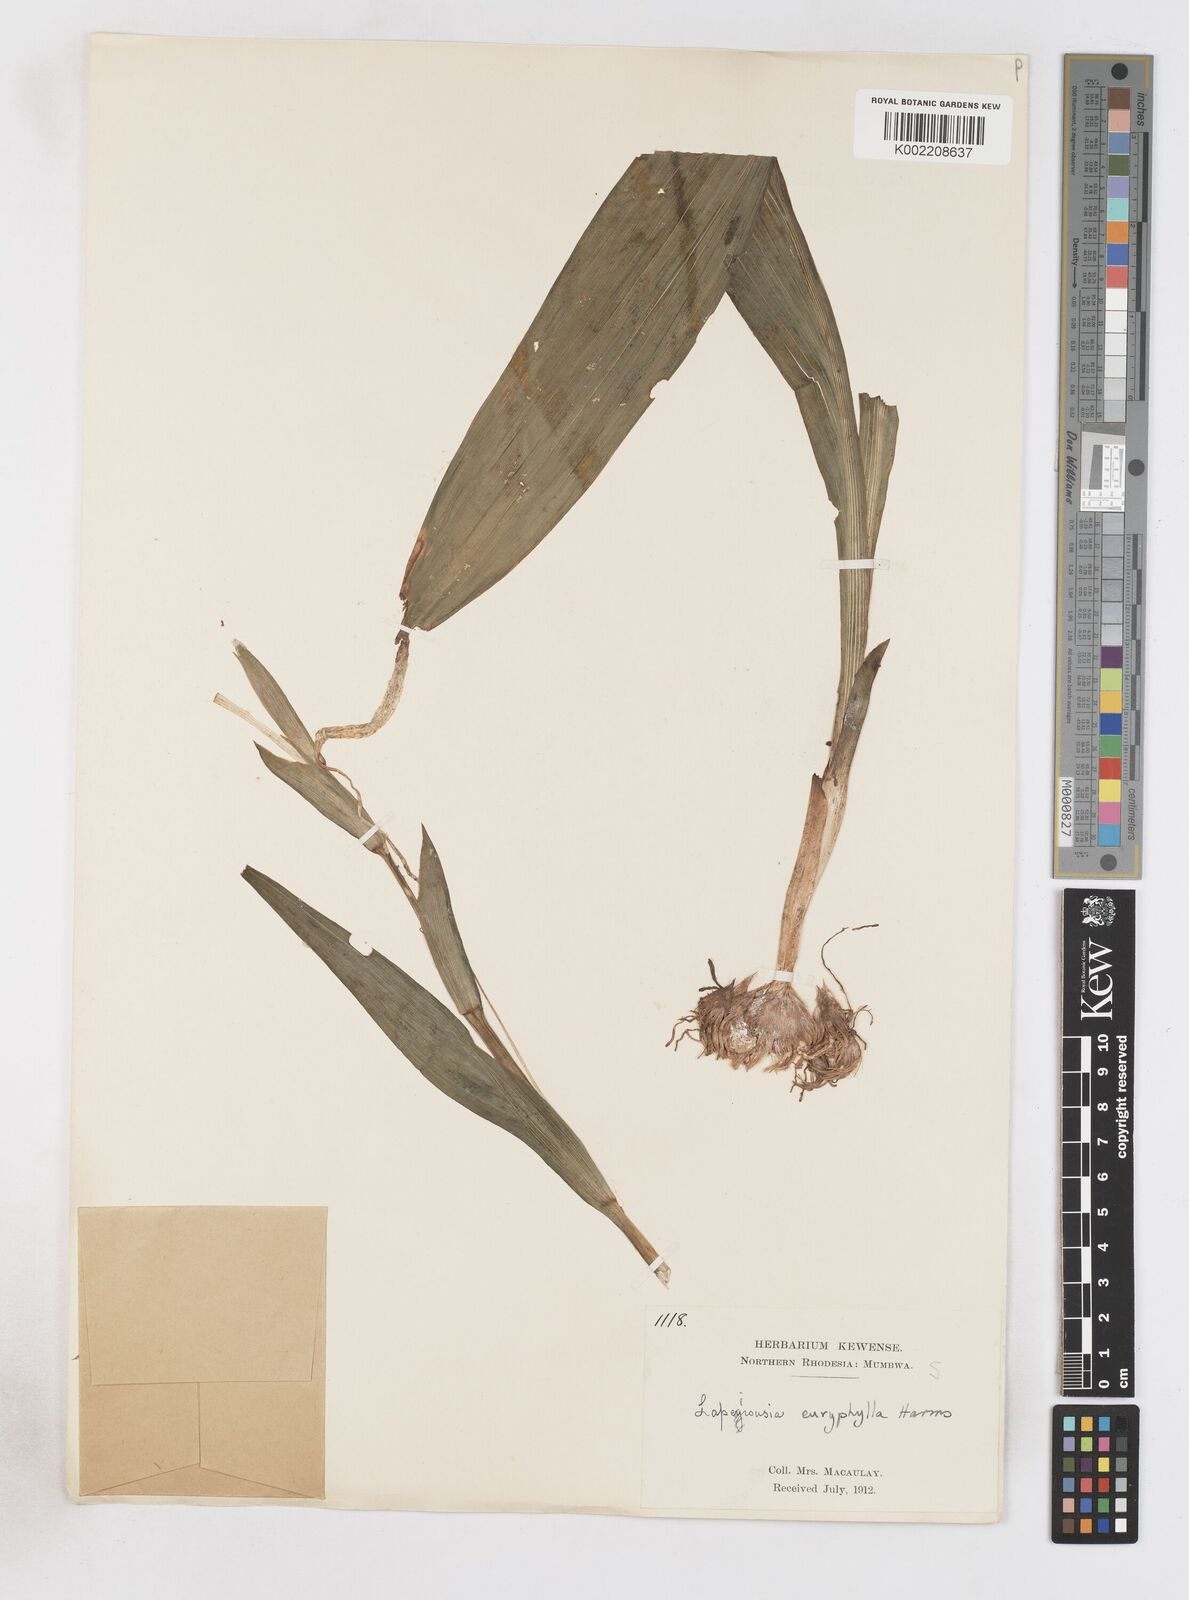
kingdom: Plantae
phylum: Tracheophyta
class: Liliopsida
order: Asparagales
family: Iridaceae
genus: Savannosiphon
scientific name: Savannosiphon euryphylla
